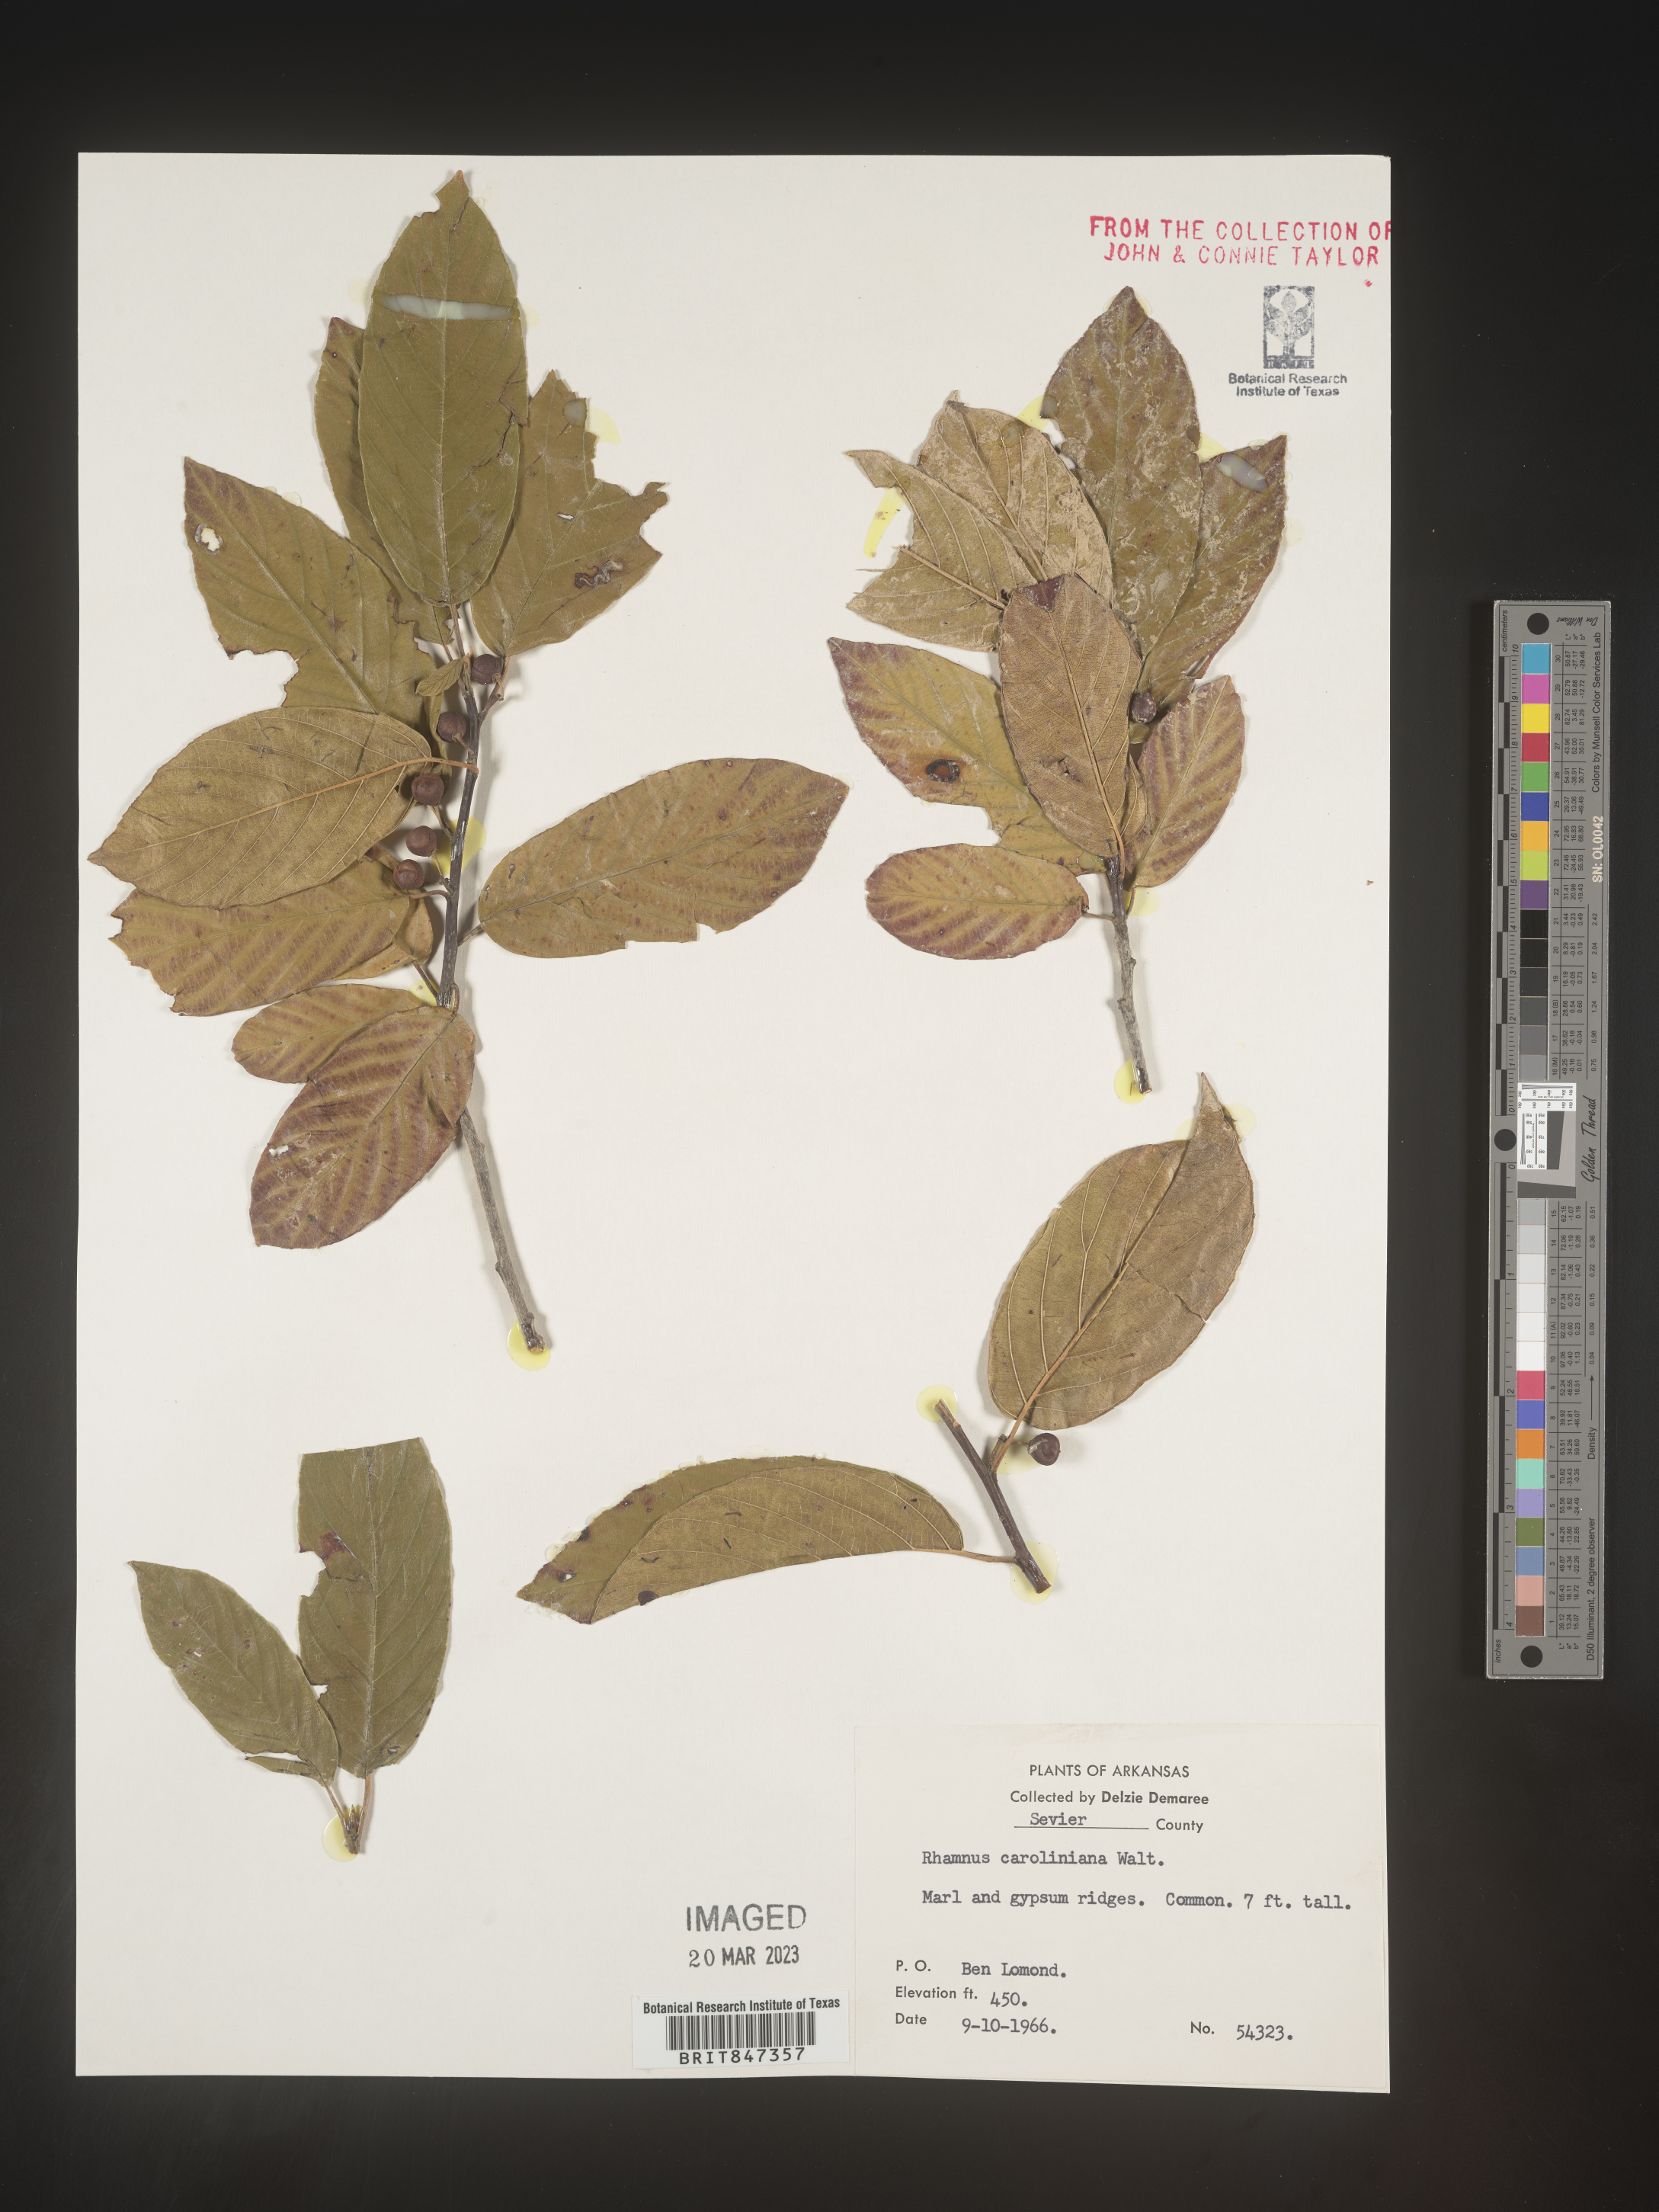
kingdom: Plantae
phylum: Tracheophyta
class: Magnoliopsida
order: Rosales
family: Rhamnaceae
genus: Frangula
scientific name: Frangula caroliniana
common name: Carolina buckthorn
